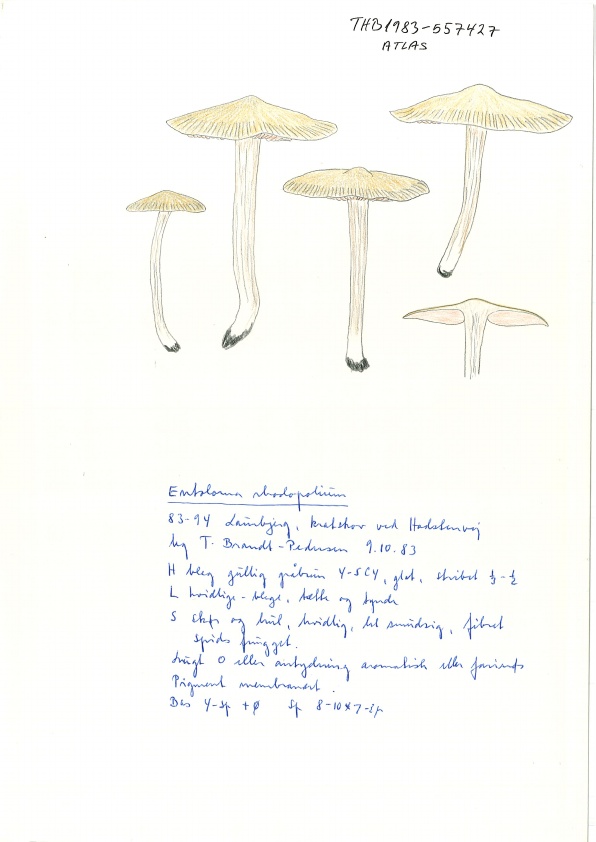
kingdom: Fungi
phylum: Basidiomycota
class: Agaricomycetes
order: Agaricales
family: Entolomataceae
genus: Entoloma
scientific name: Entoloma rhodopolium
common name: skov-rødblad
